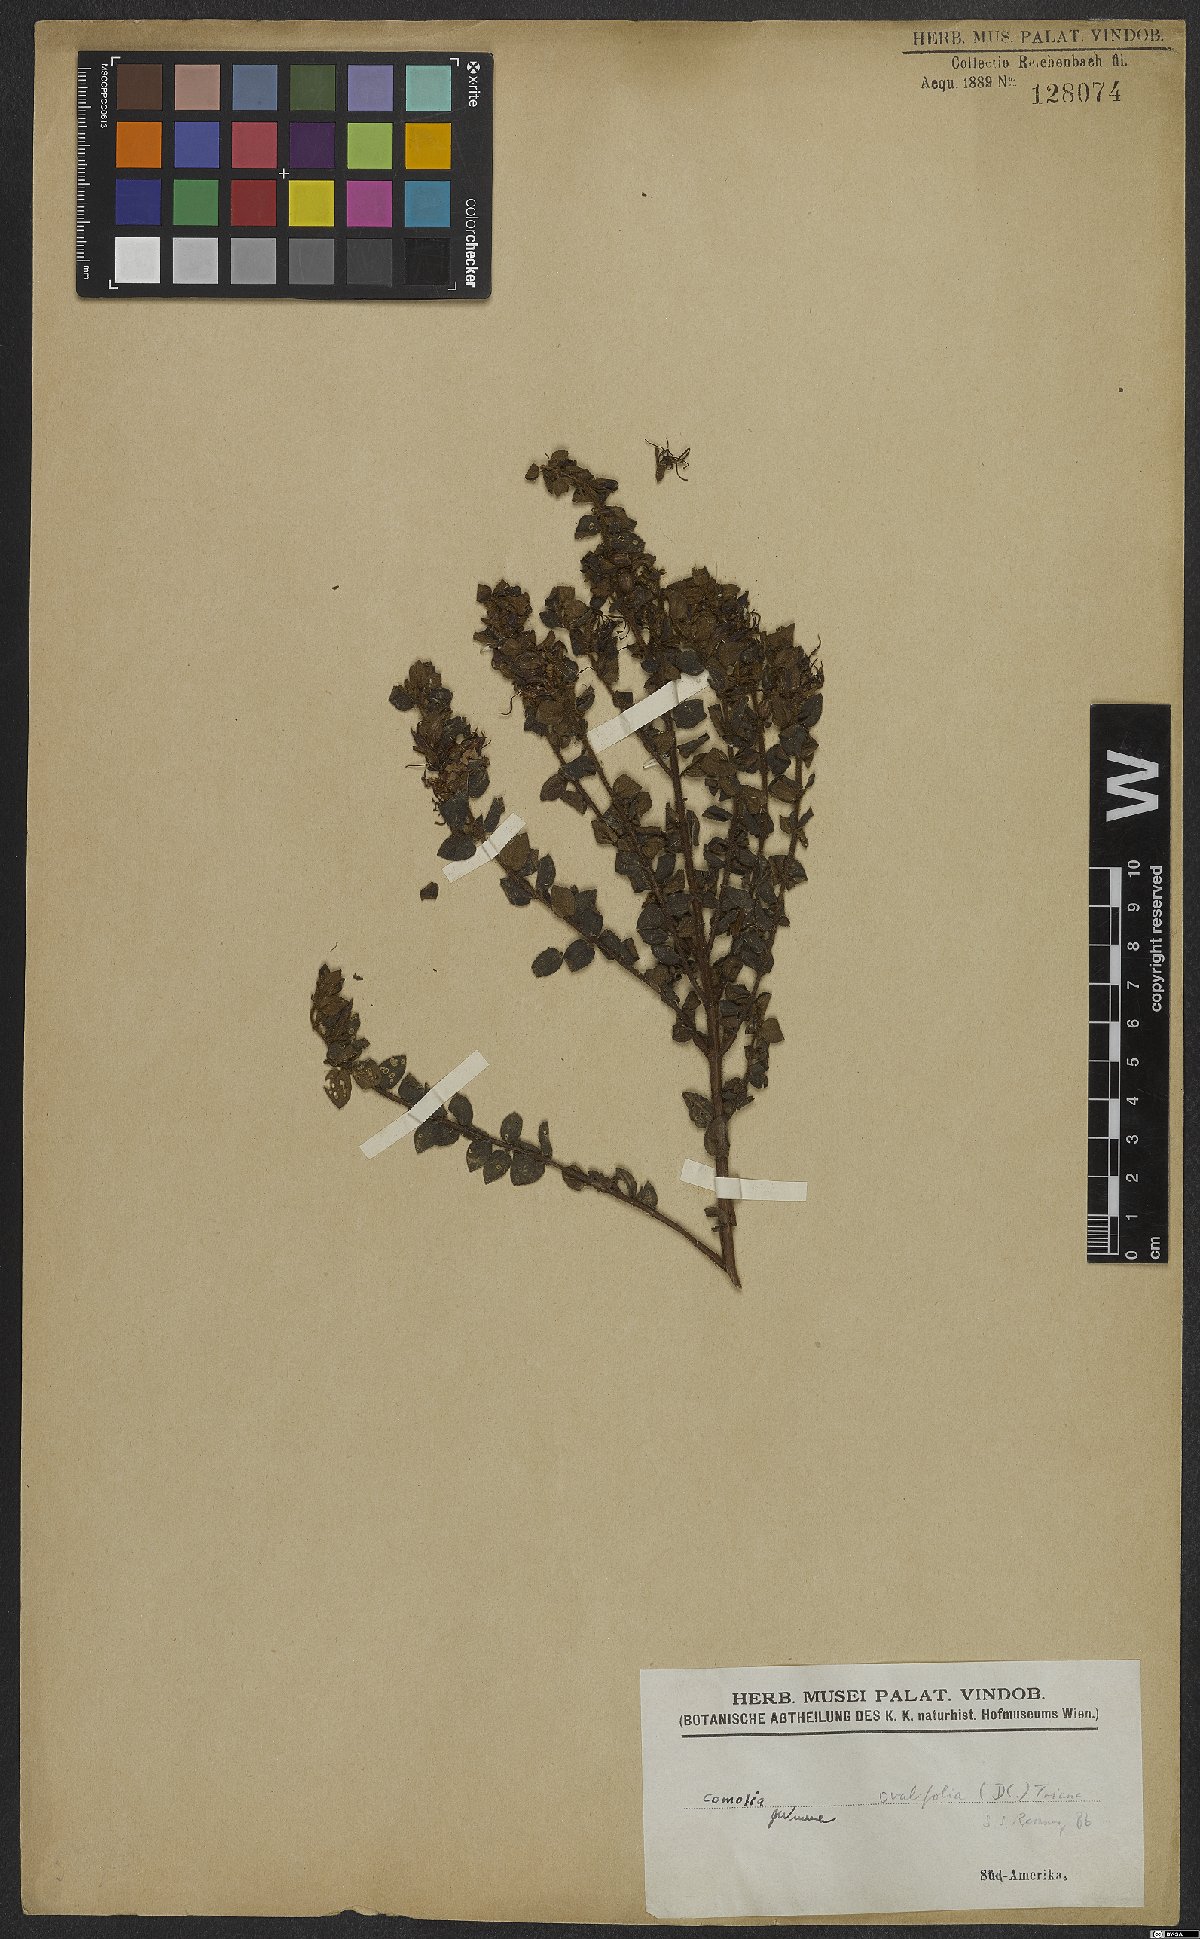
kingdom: Plantae
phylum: Tracheophyta
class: Magnoliopsida
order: Myrtales
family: Melastomataceae
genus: Comolia
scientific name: Comolia ovalifolia
